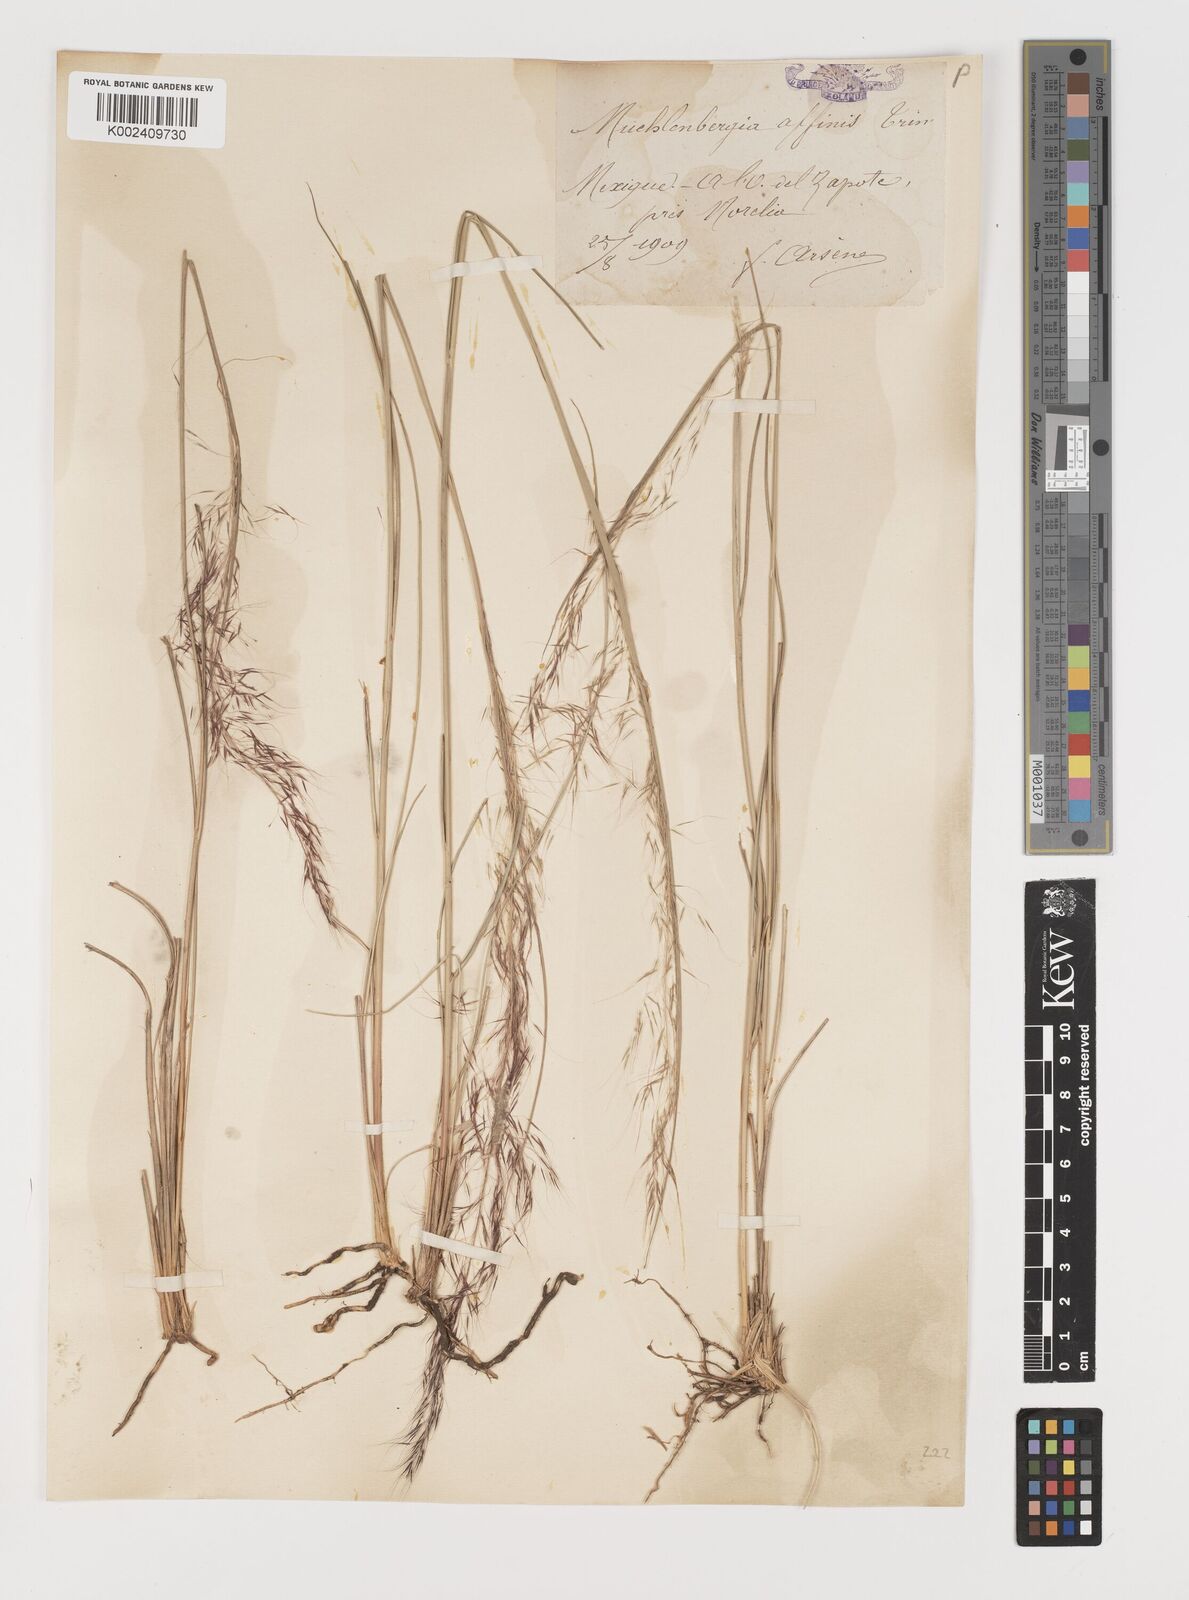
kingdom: Plantae
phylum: Tracheophyta
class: Liliopsida
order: Poales
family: Poaceae
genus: Muhlenbergia
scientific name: Muhlenbergia rigida
